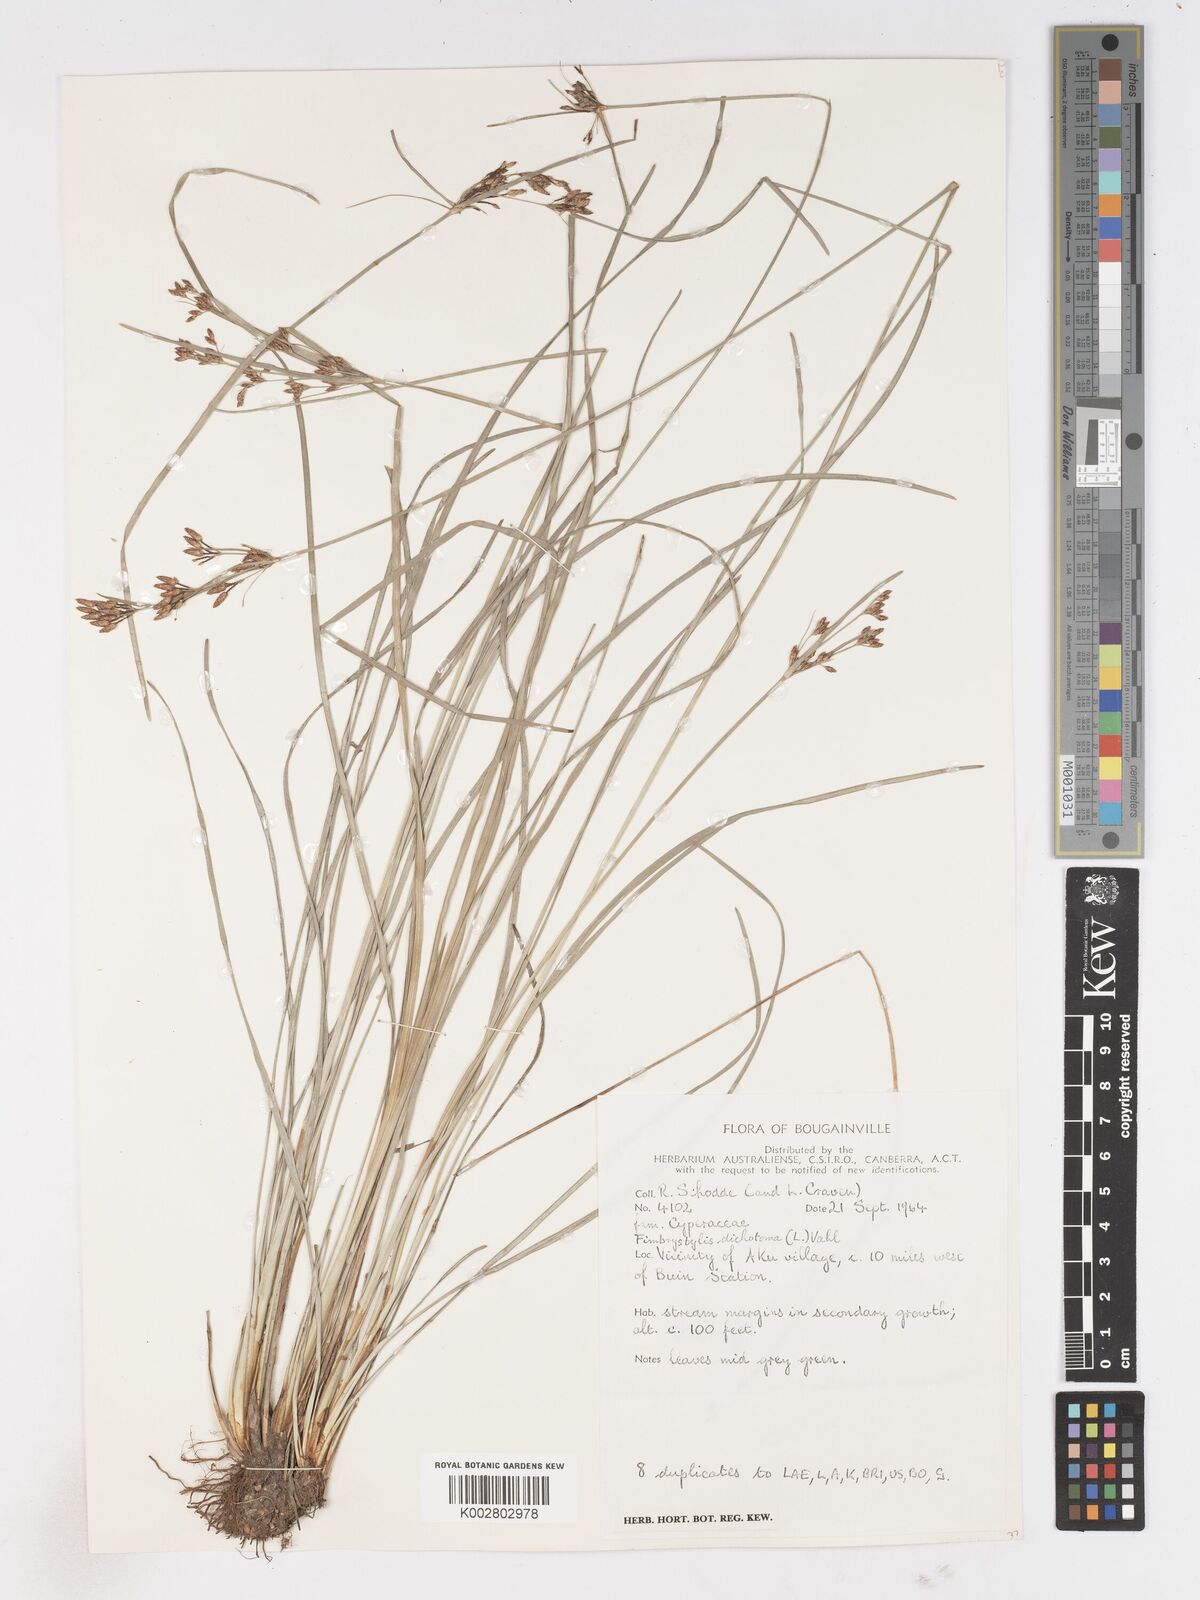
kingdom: Plantae
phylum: Tracheophyta
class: Liliopsida
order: Poales
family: Cyperaceae
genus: Fimbristylis
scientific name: Fimbristylis dichotoma
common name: Forked fimbry
